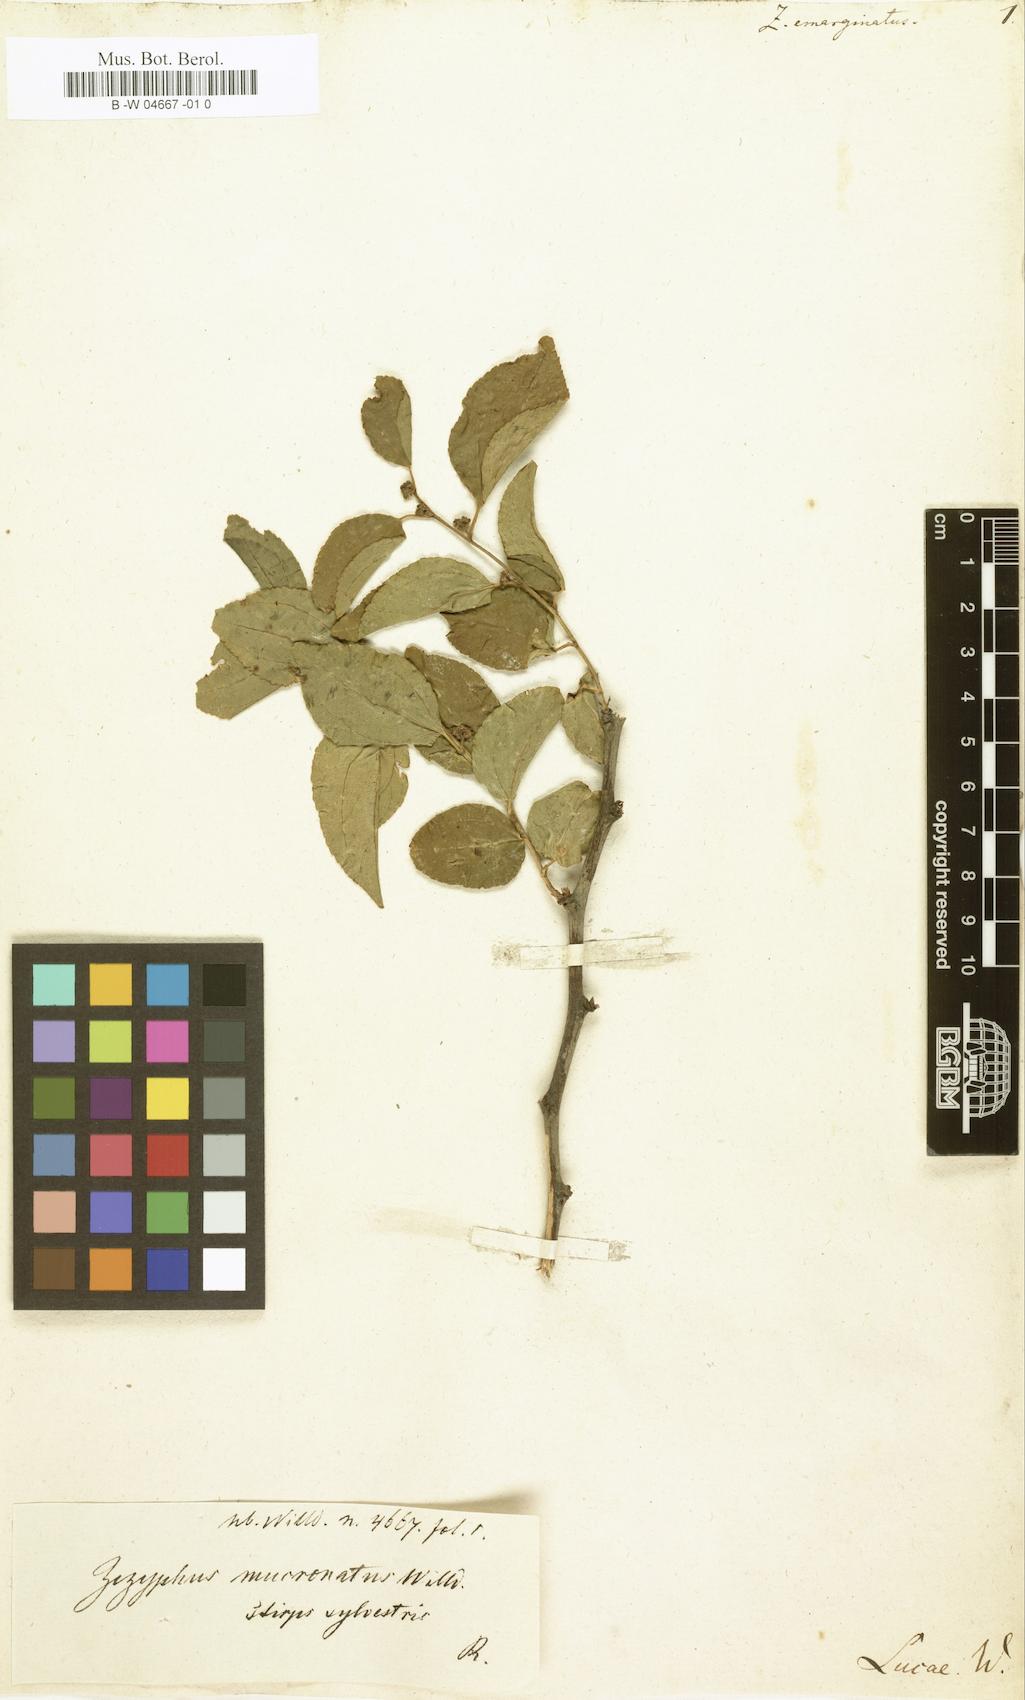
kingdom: Plantae
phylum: Tracheophyta
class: Magnoliopsida
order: Rosales
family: Rhamnaceae
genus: Krugiodendron
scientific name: Krugiodendron ferreum
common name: Iron wood
